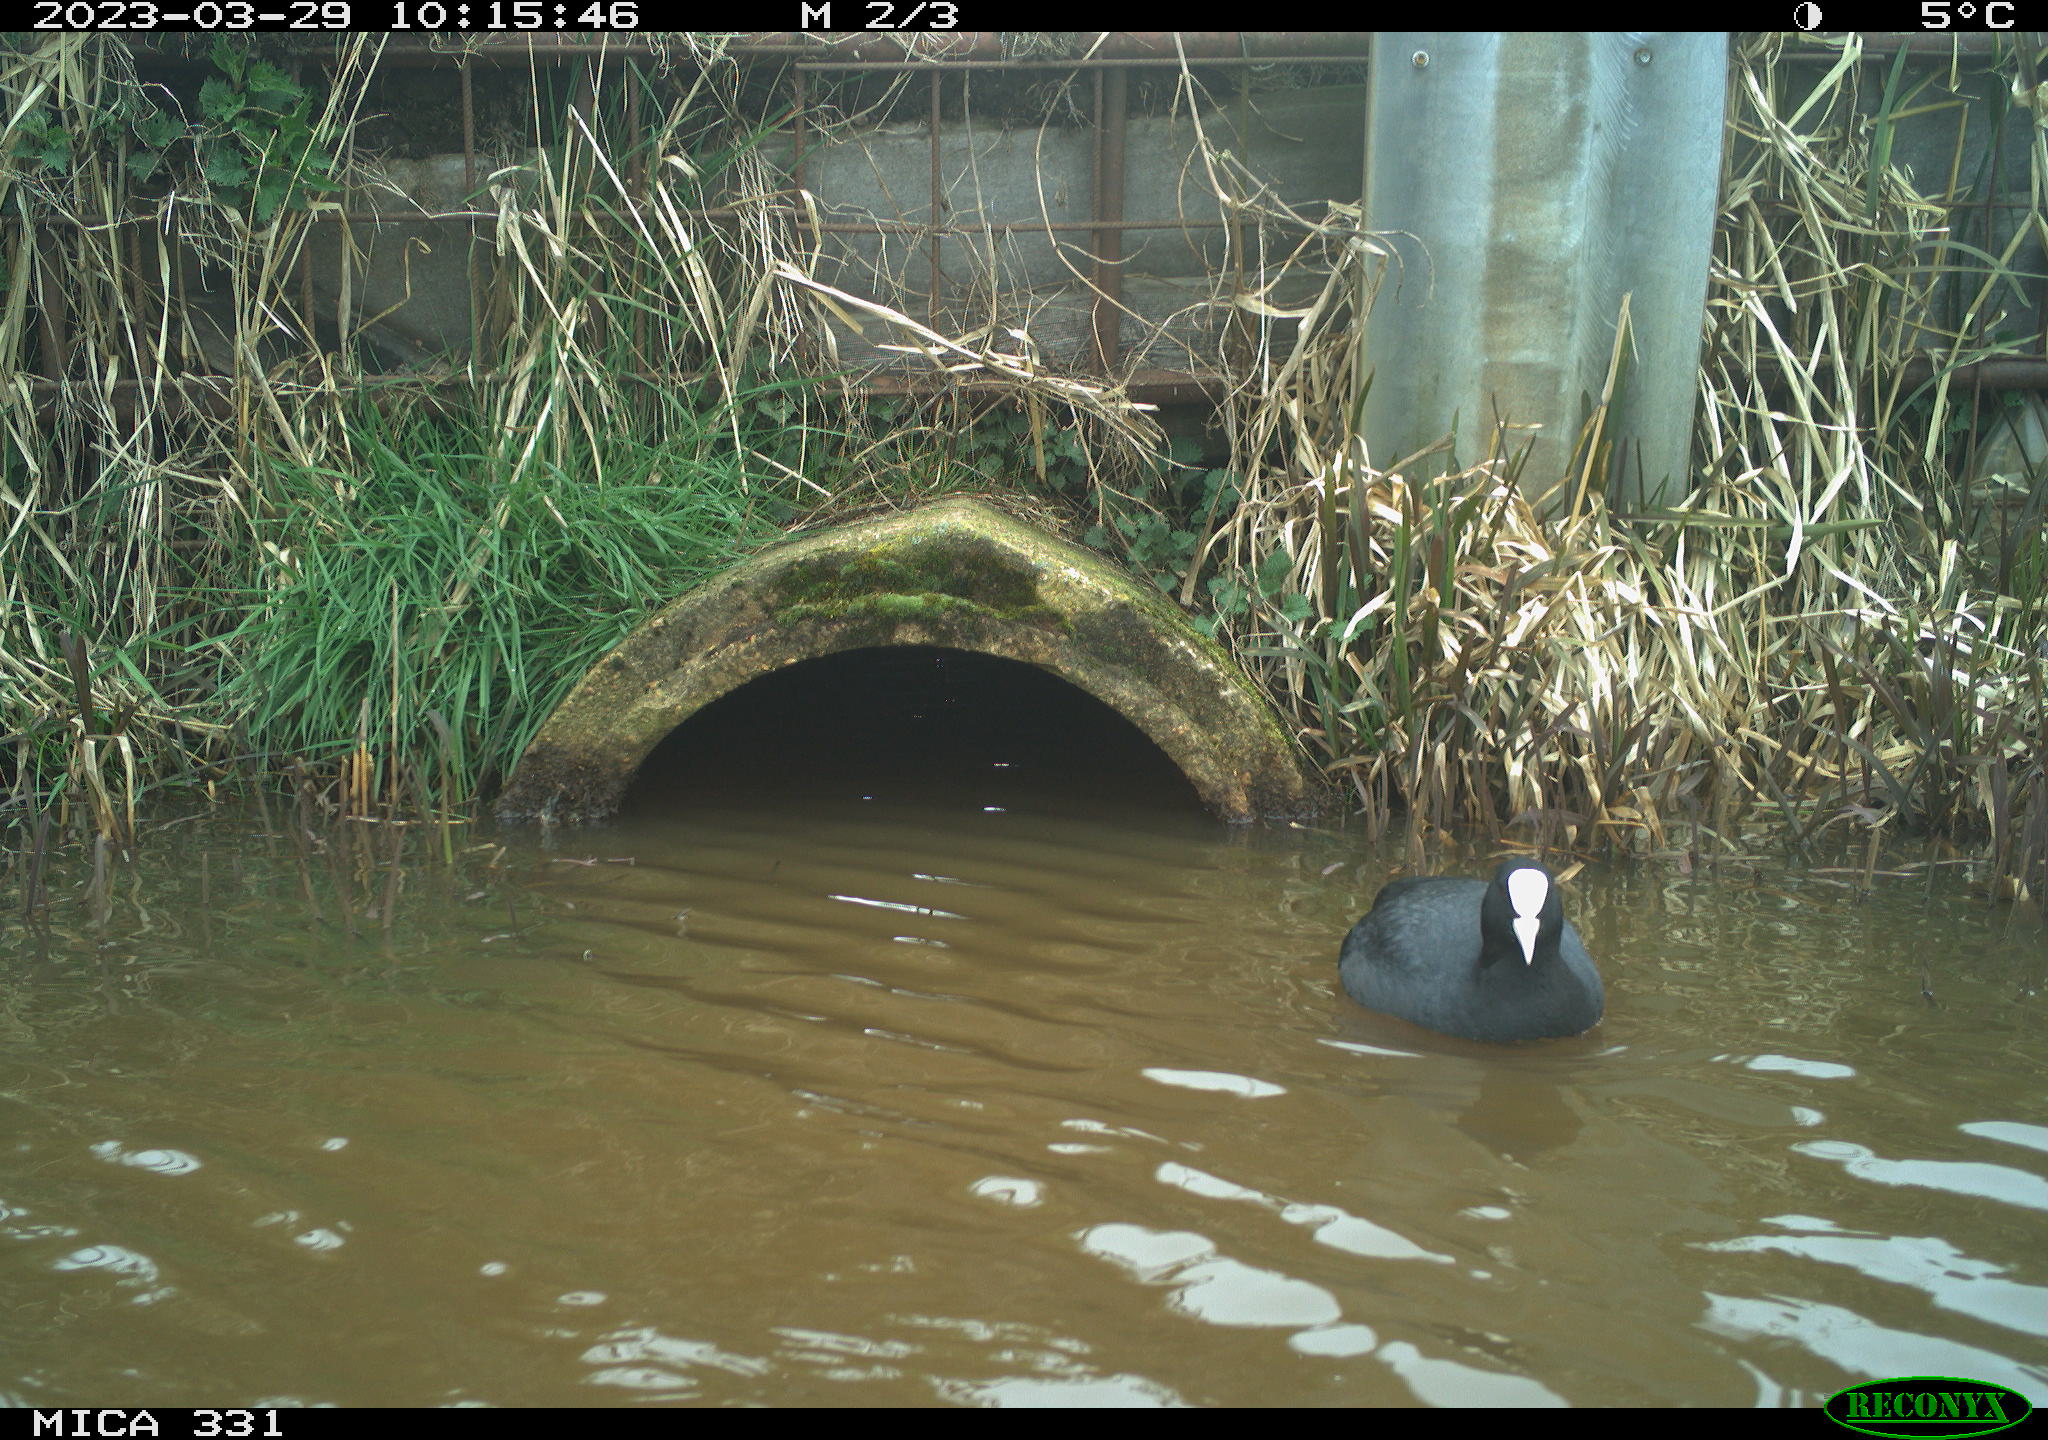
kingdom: Animalia
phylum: Chordata
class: Aves
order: Gruiformes
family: Rallidae
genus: Fulica
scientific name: Fulica atra
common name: Eurasian coot
